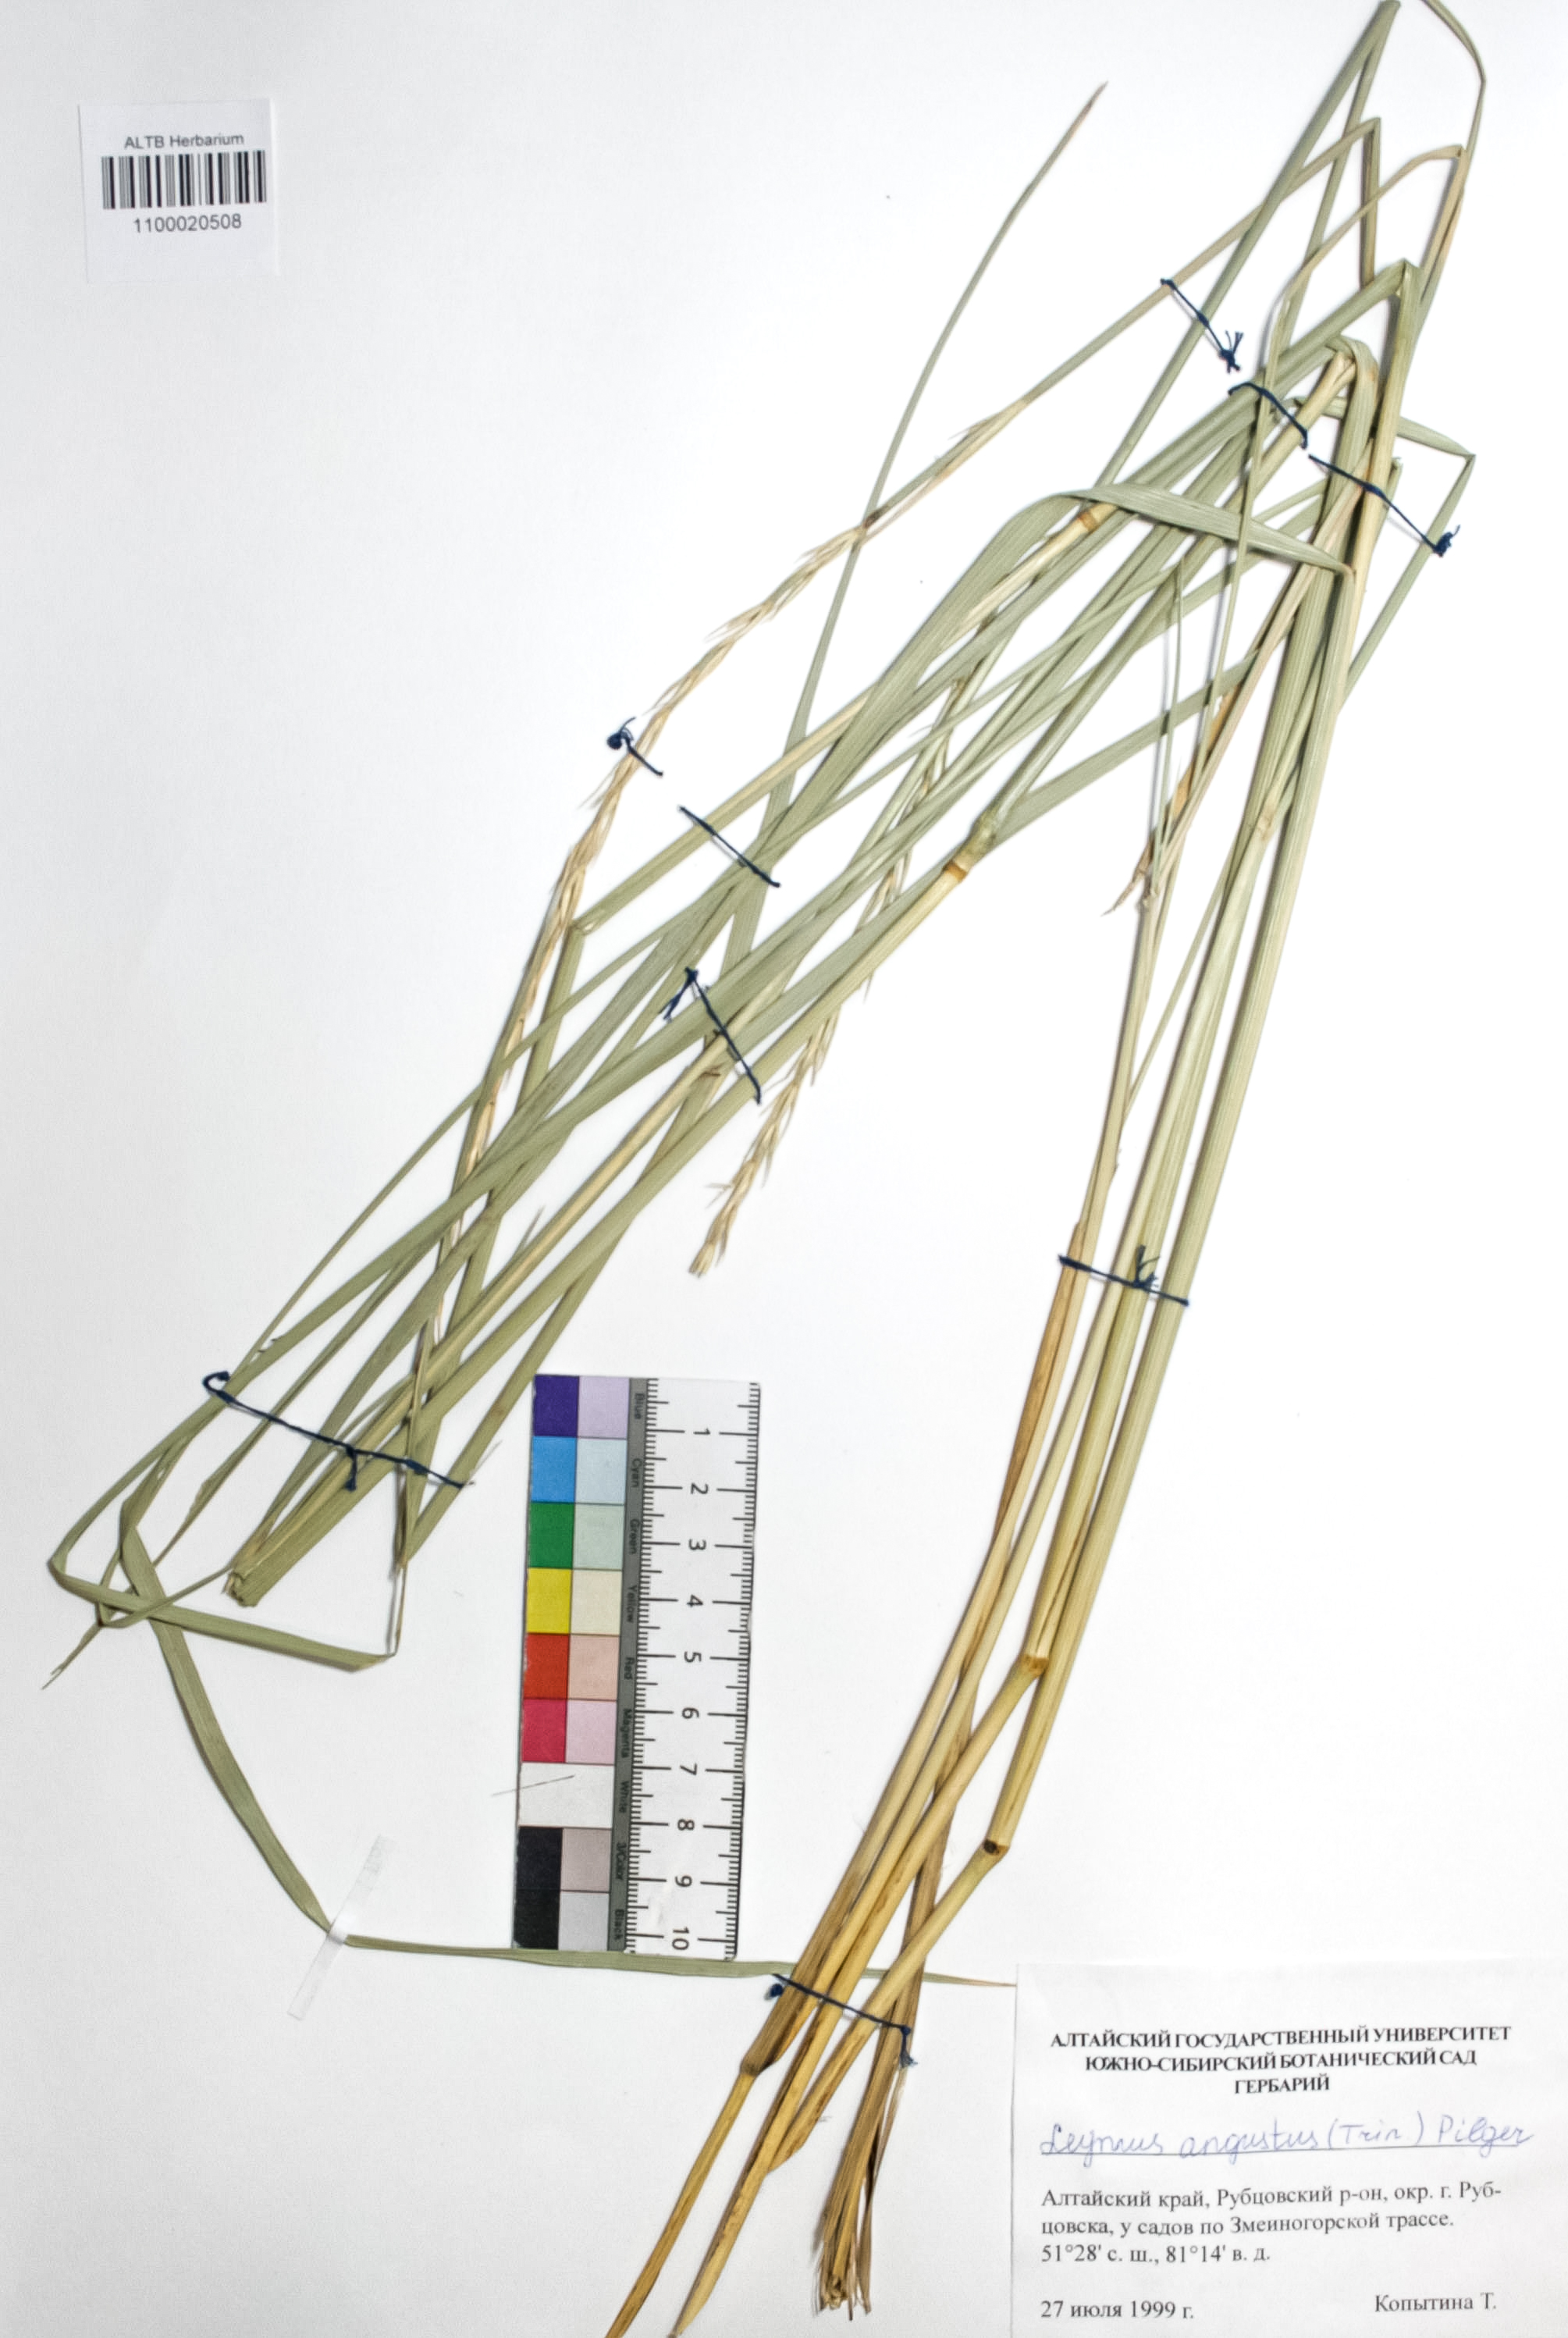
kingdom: Plantae
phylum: Tracheophyta
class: Liliopsida
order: Poales
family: Poaceae
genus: Leymus
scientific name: Leymus angustus
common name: Altai wildrye
